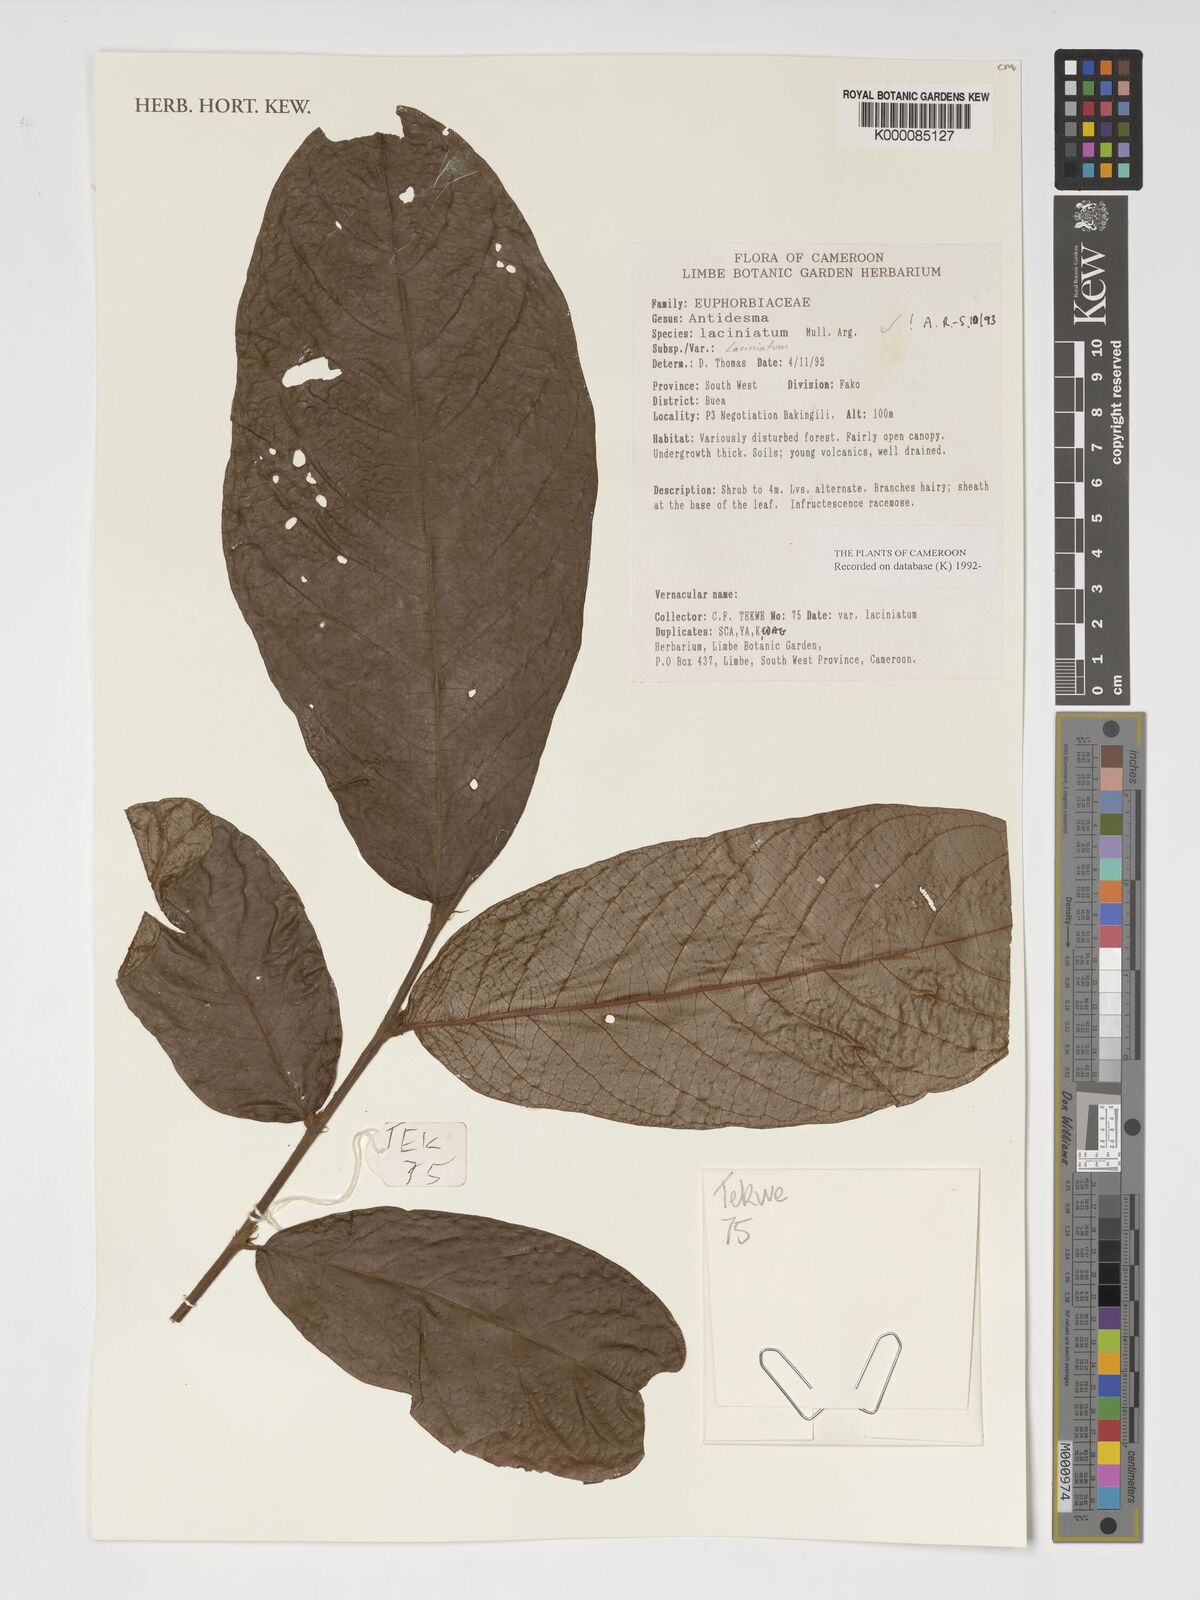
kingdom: Plantae
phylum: Tracheophyta
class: Magnoliopsida
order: Malpighiales
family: Phyllanthaceae
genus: Antidesma
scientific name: Antidesma
